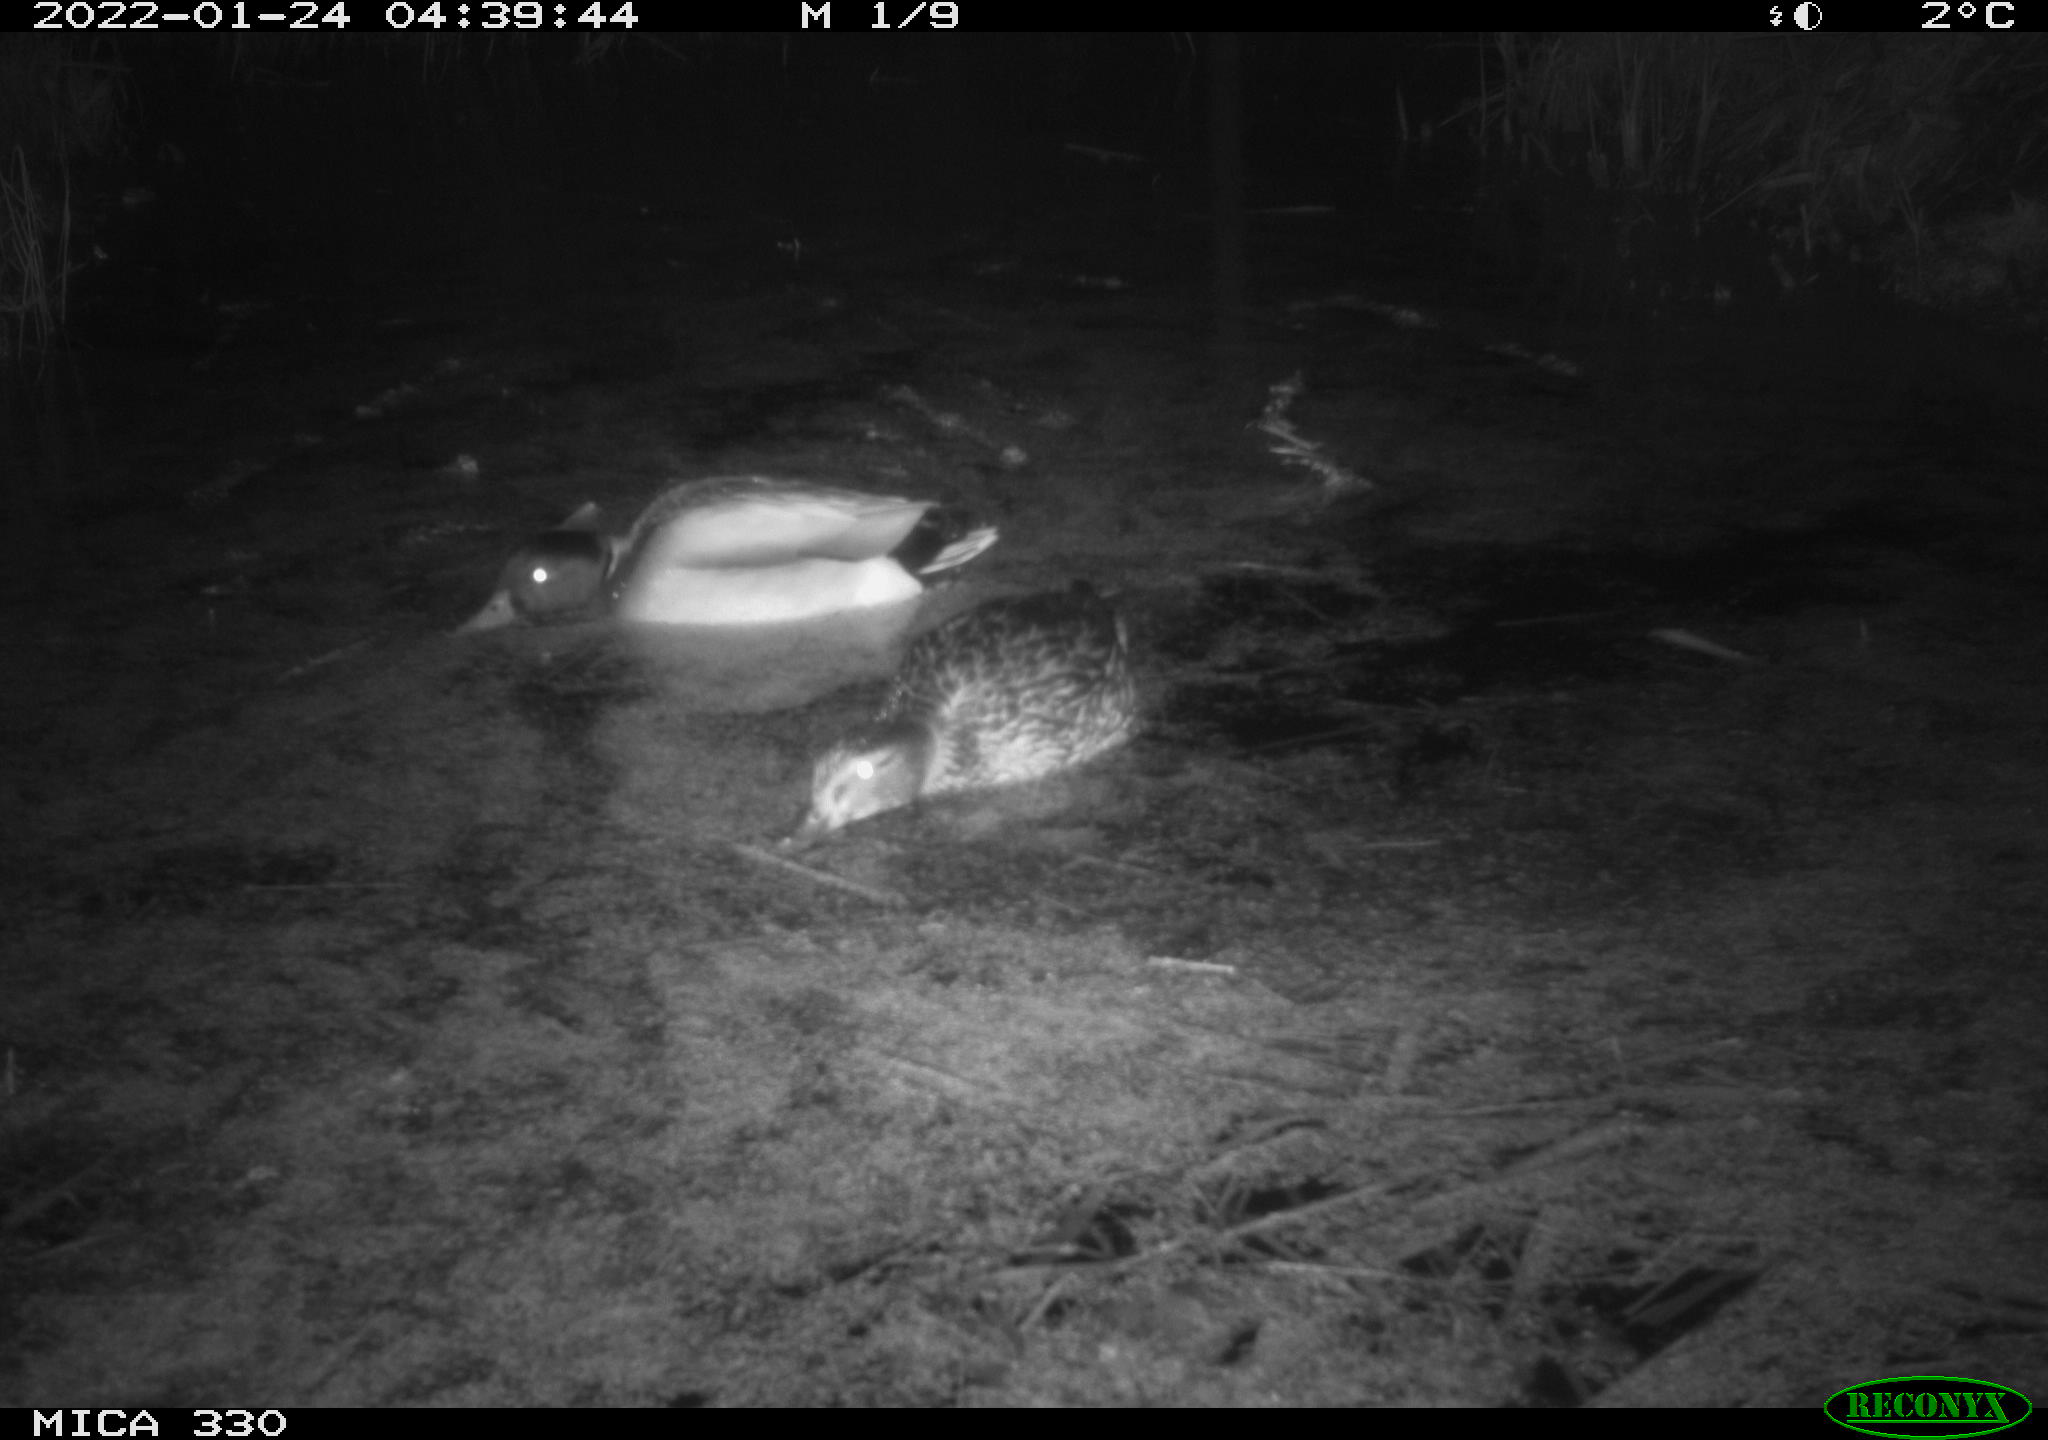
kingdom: Animalia
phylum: Chordata
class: Aves
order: Anseriformes
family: Anatidae
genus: Anas
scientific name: Anas platyrhynchos
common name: Mallard
